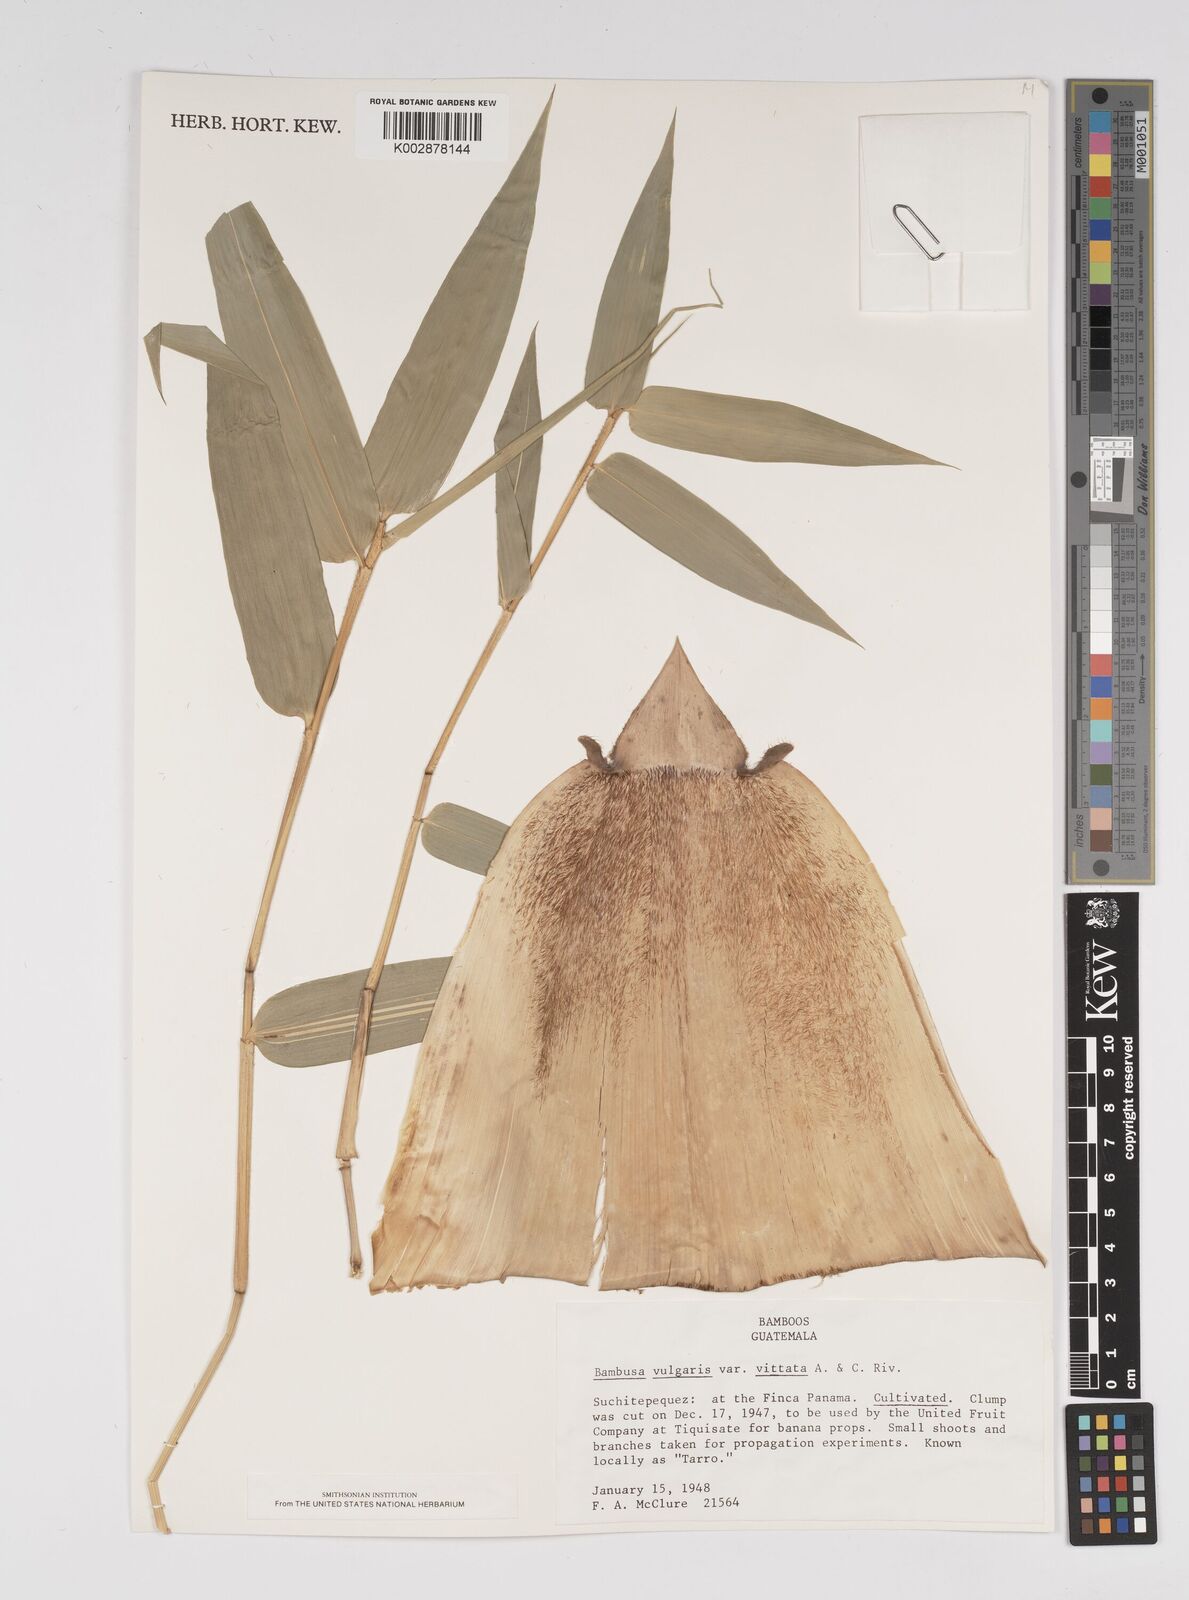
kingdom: Plantae
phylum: Tracheophyta
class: Liliopsida
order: Poales
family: Poaceae
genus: Bambusa
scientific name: Bambusa
